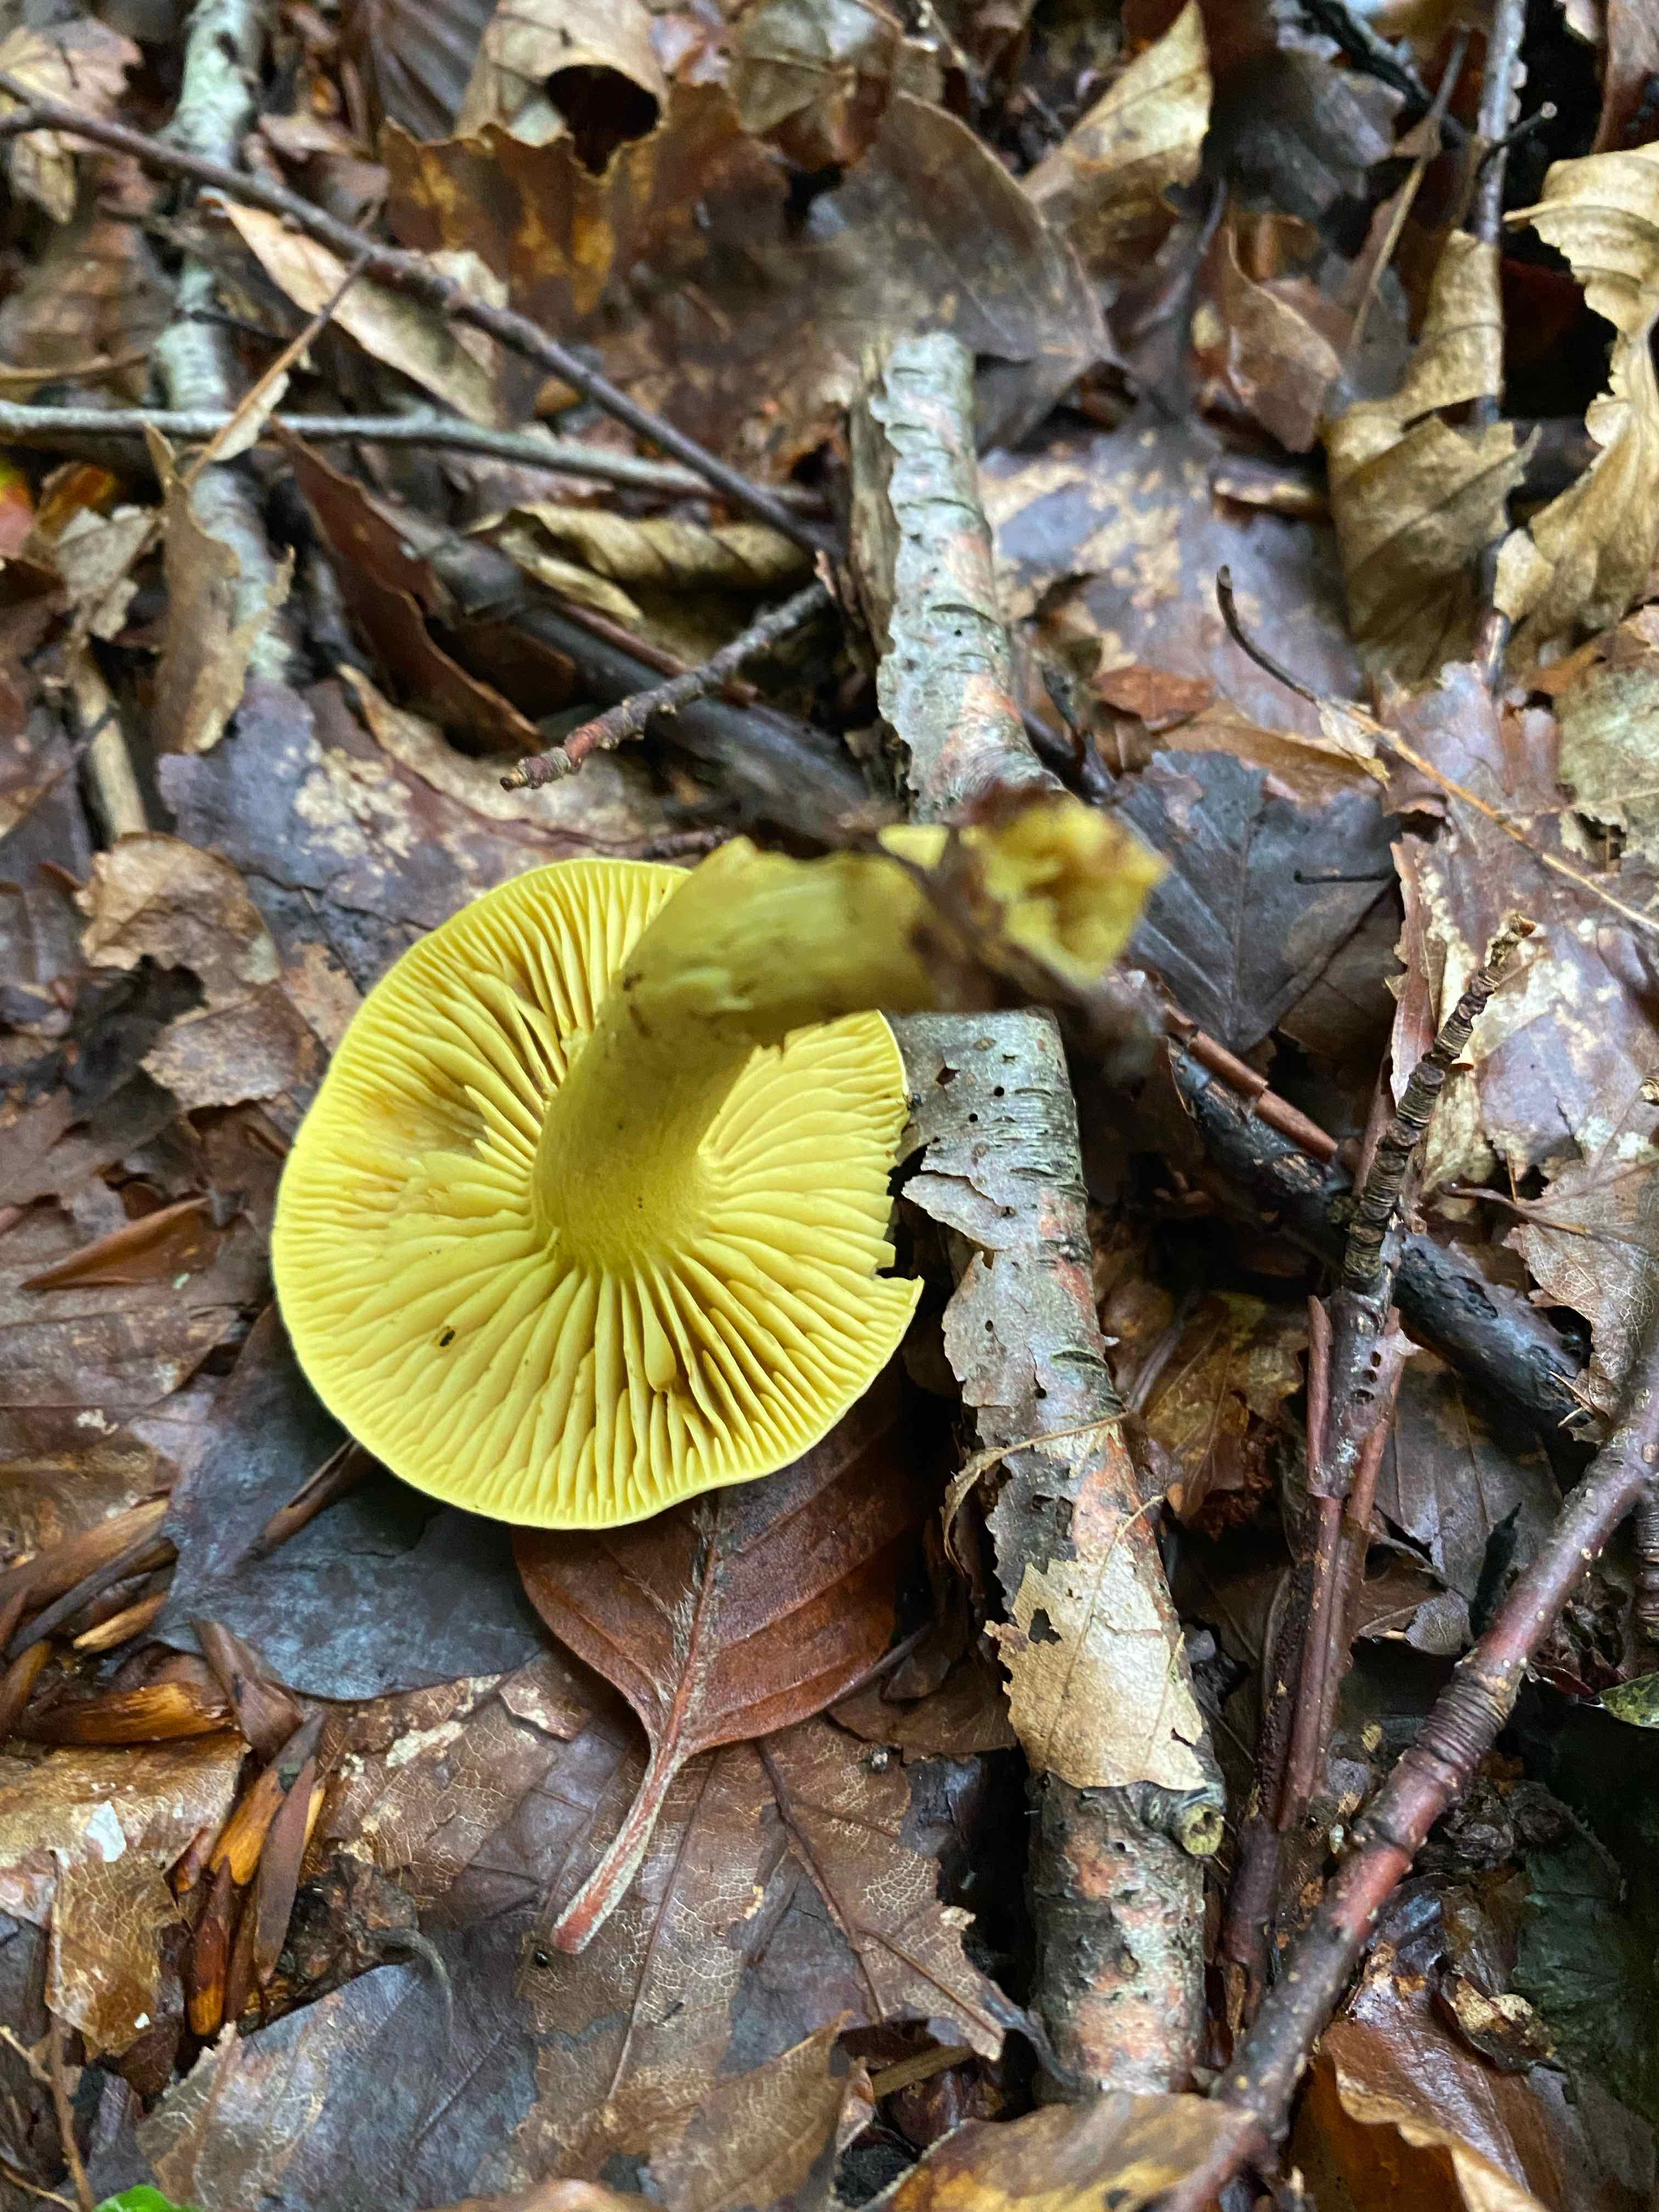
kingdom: Fungi
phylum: Basidiomycota
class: Agaricomycetes
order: Agaricales
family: Tricholomataceae
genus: Tricholoma
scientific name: Tricholoma sulphureum
